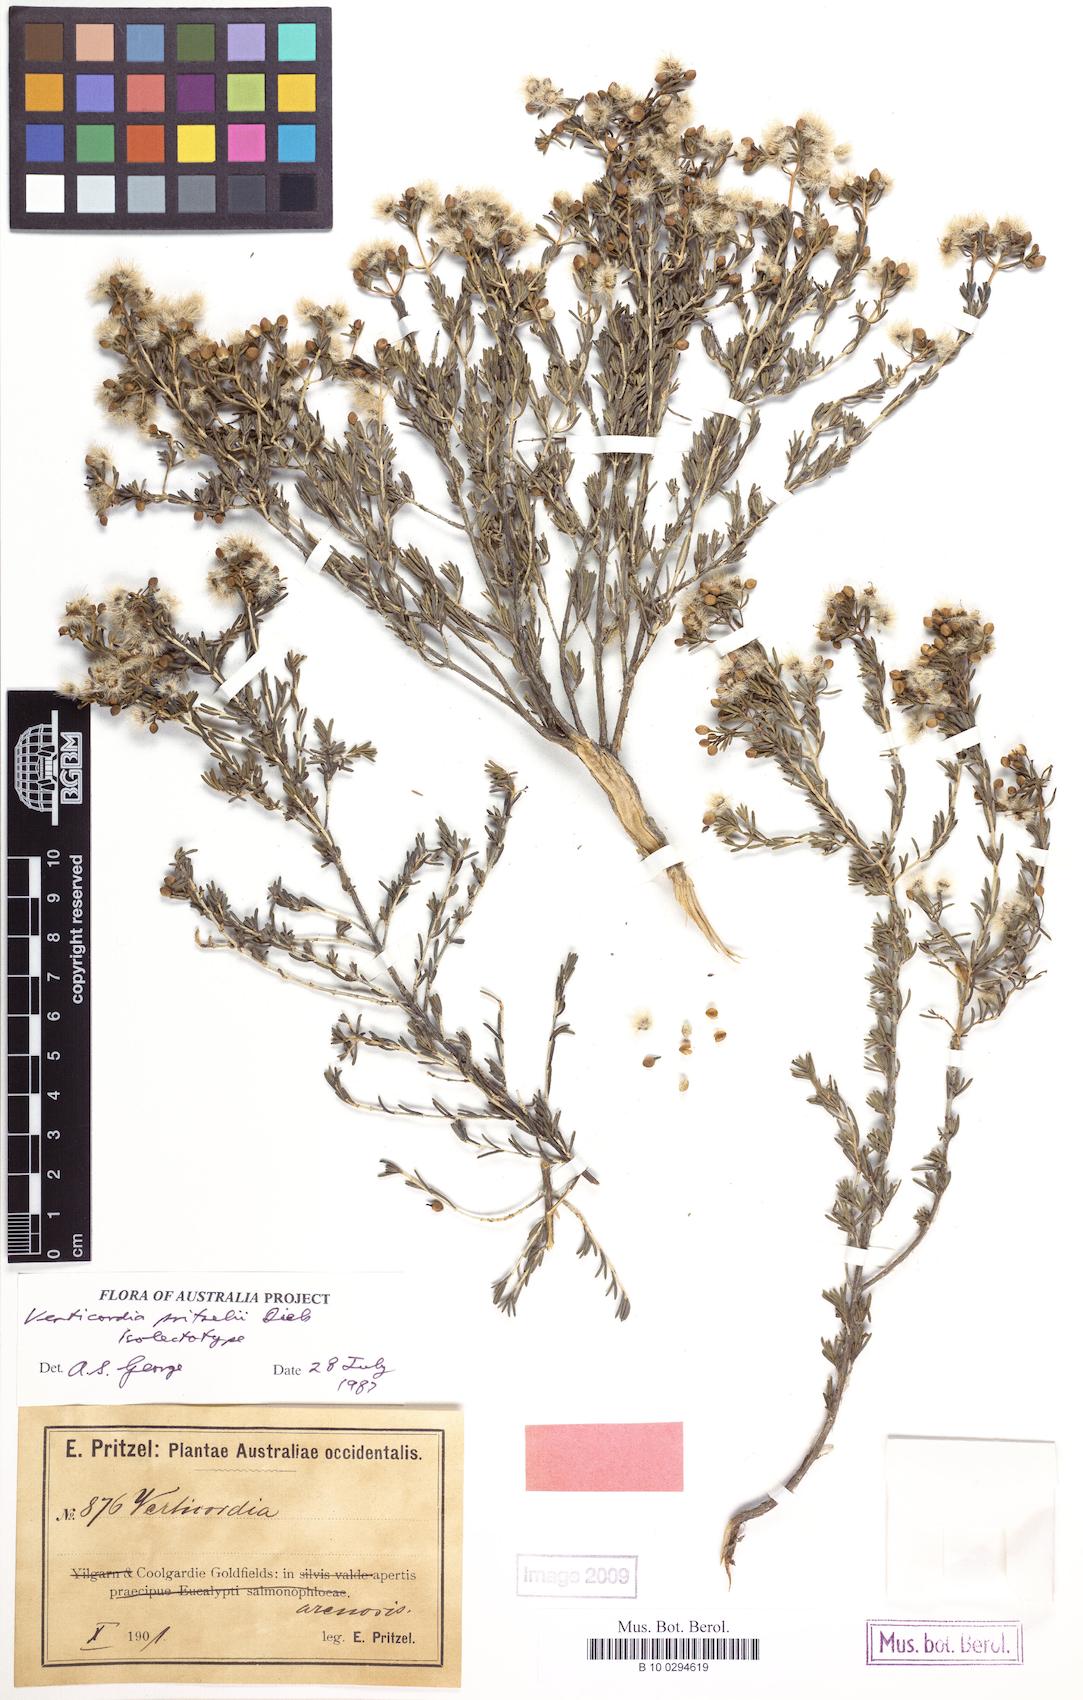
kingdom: Plantae
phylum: Tracheophyta
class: Magnoliopsida
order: Myrtales
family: Myrtaceae
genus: Verticordia
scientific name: Verticordia pritzelii
